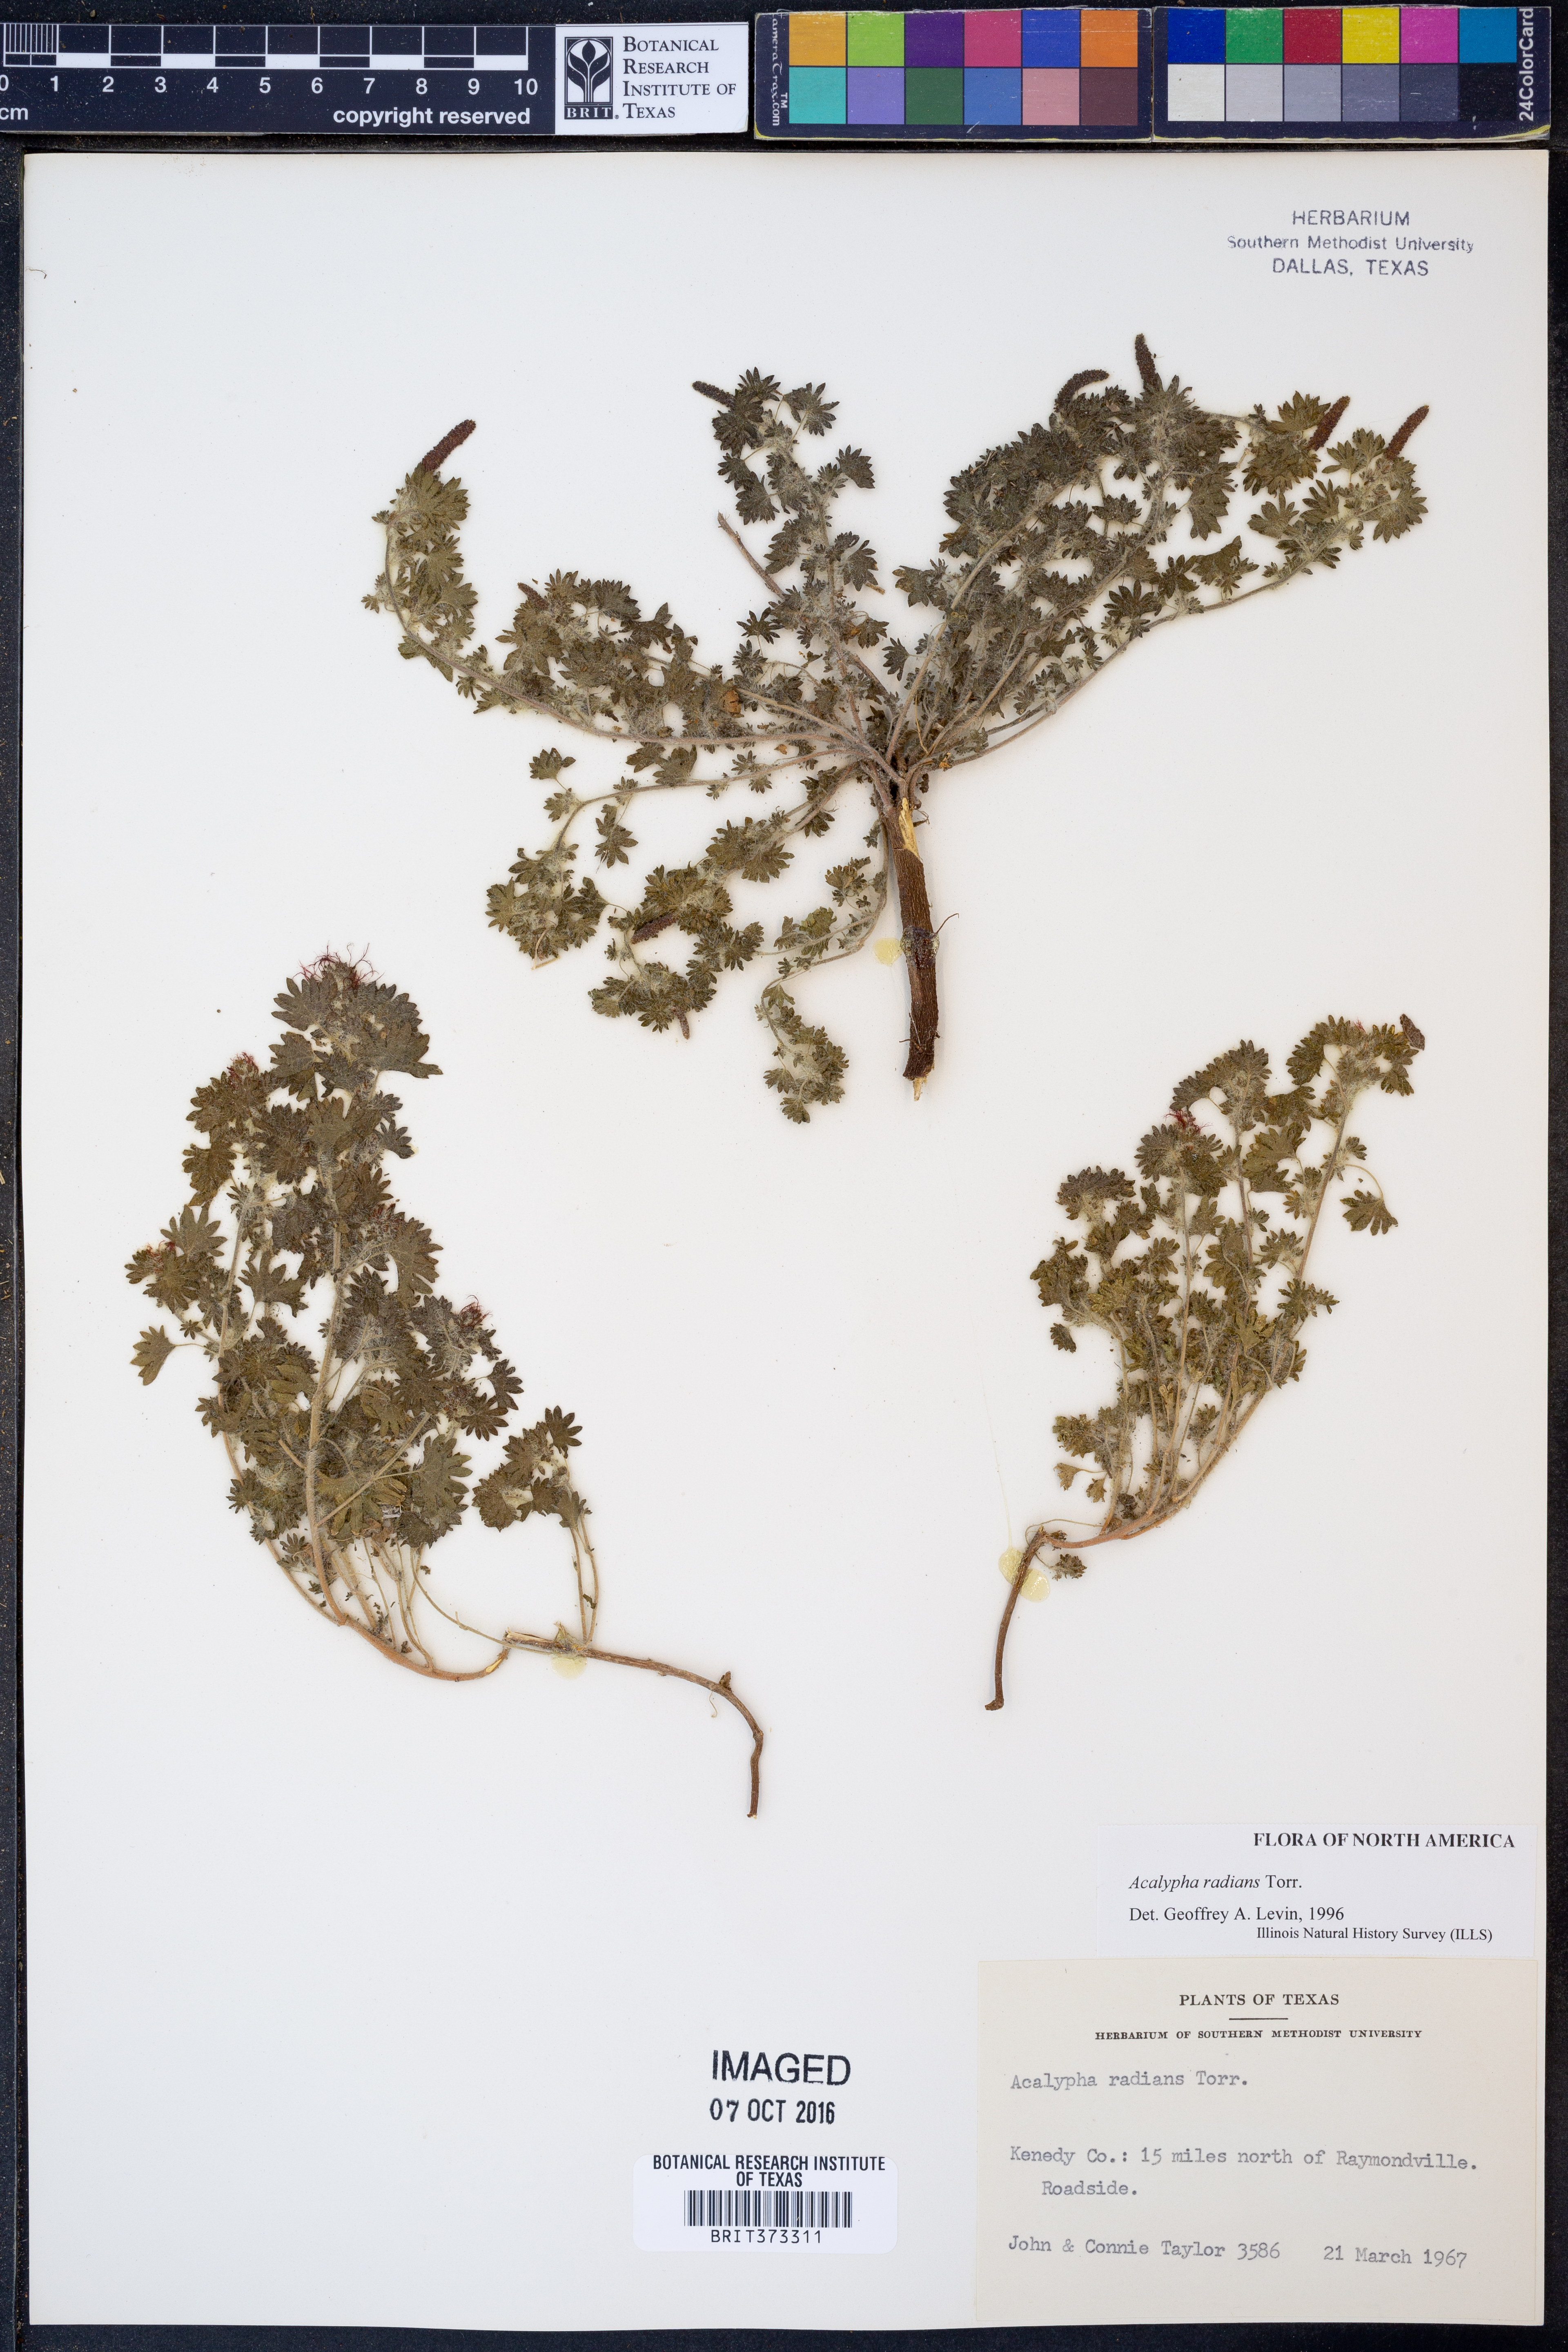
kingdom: Plantae
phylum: Tracheophyta
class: Magnoliopsida
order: Malpighiales
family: Euphorbiaceae
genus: Acalypha
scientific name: Acalypha radians
